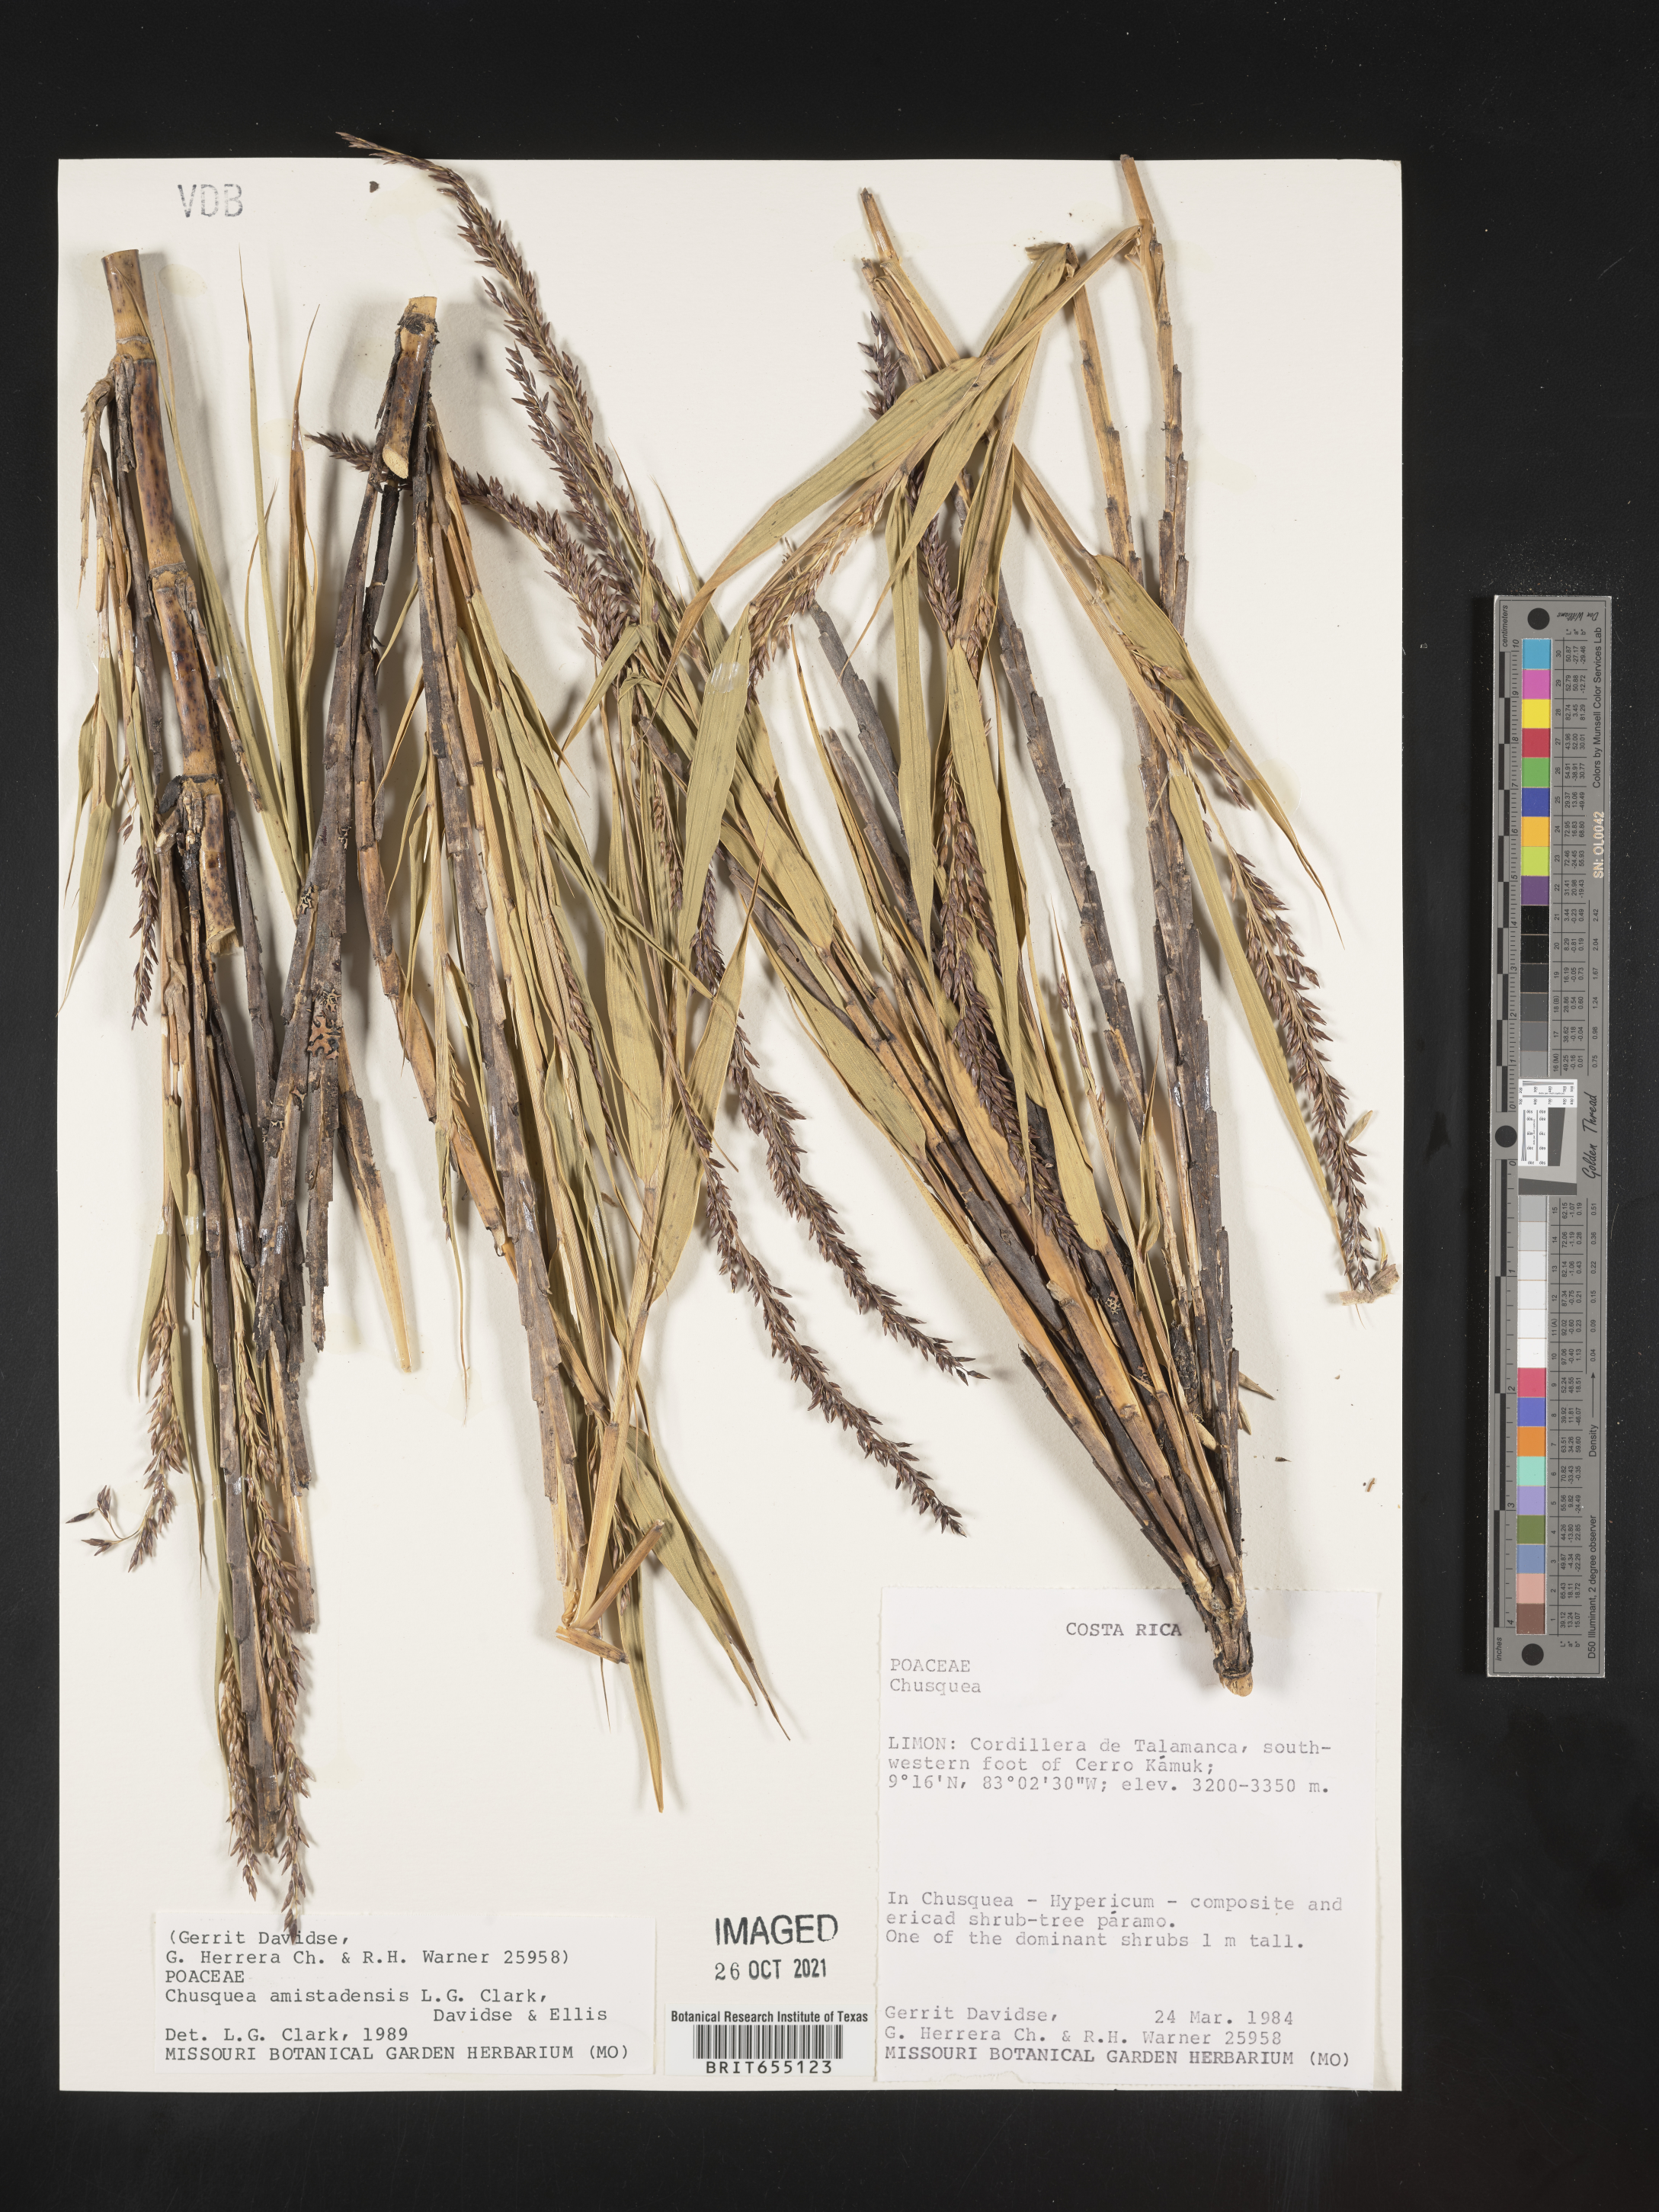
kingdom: Plantae
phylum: Tracheophyta
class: Liliopsida
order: Poales
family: Poaceae
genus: Chusquea
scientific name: Chusquea
